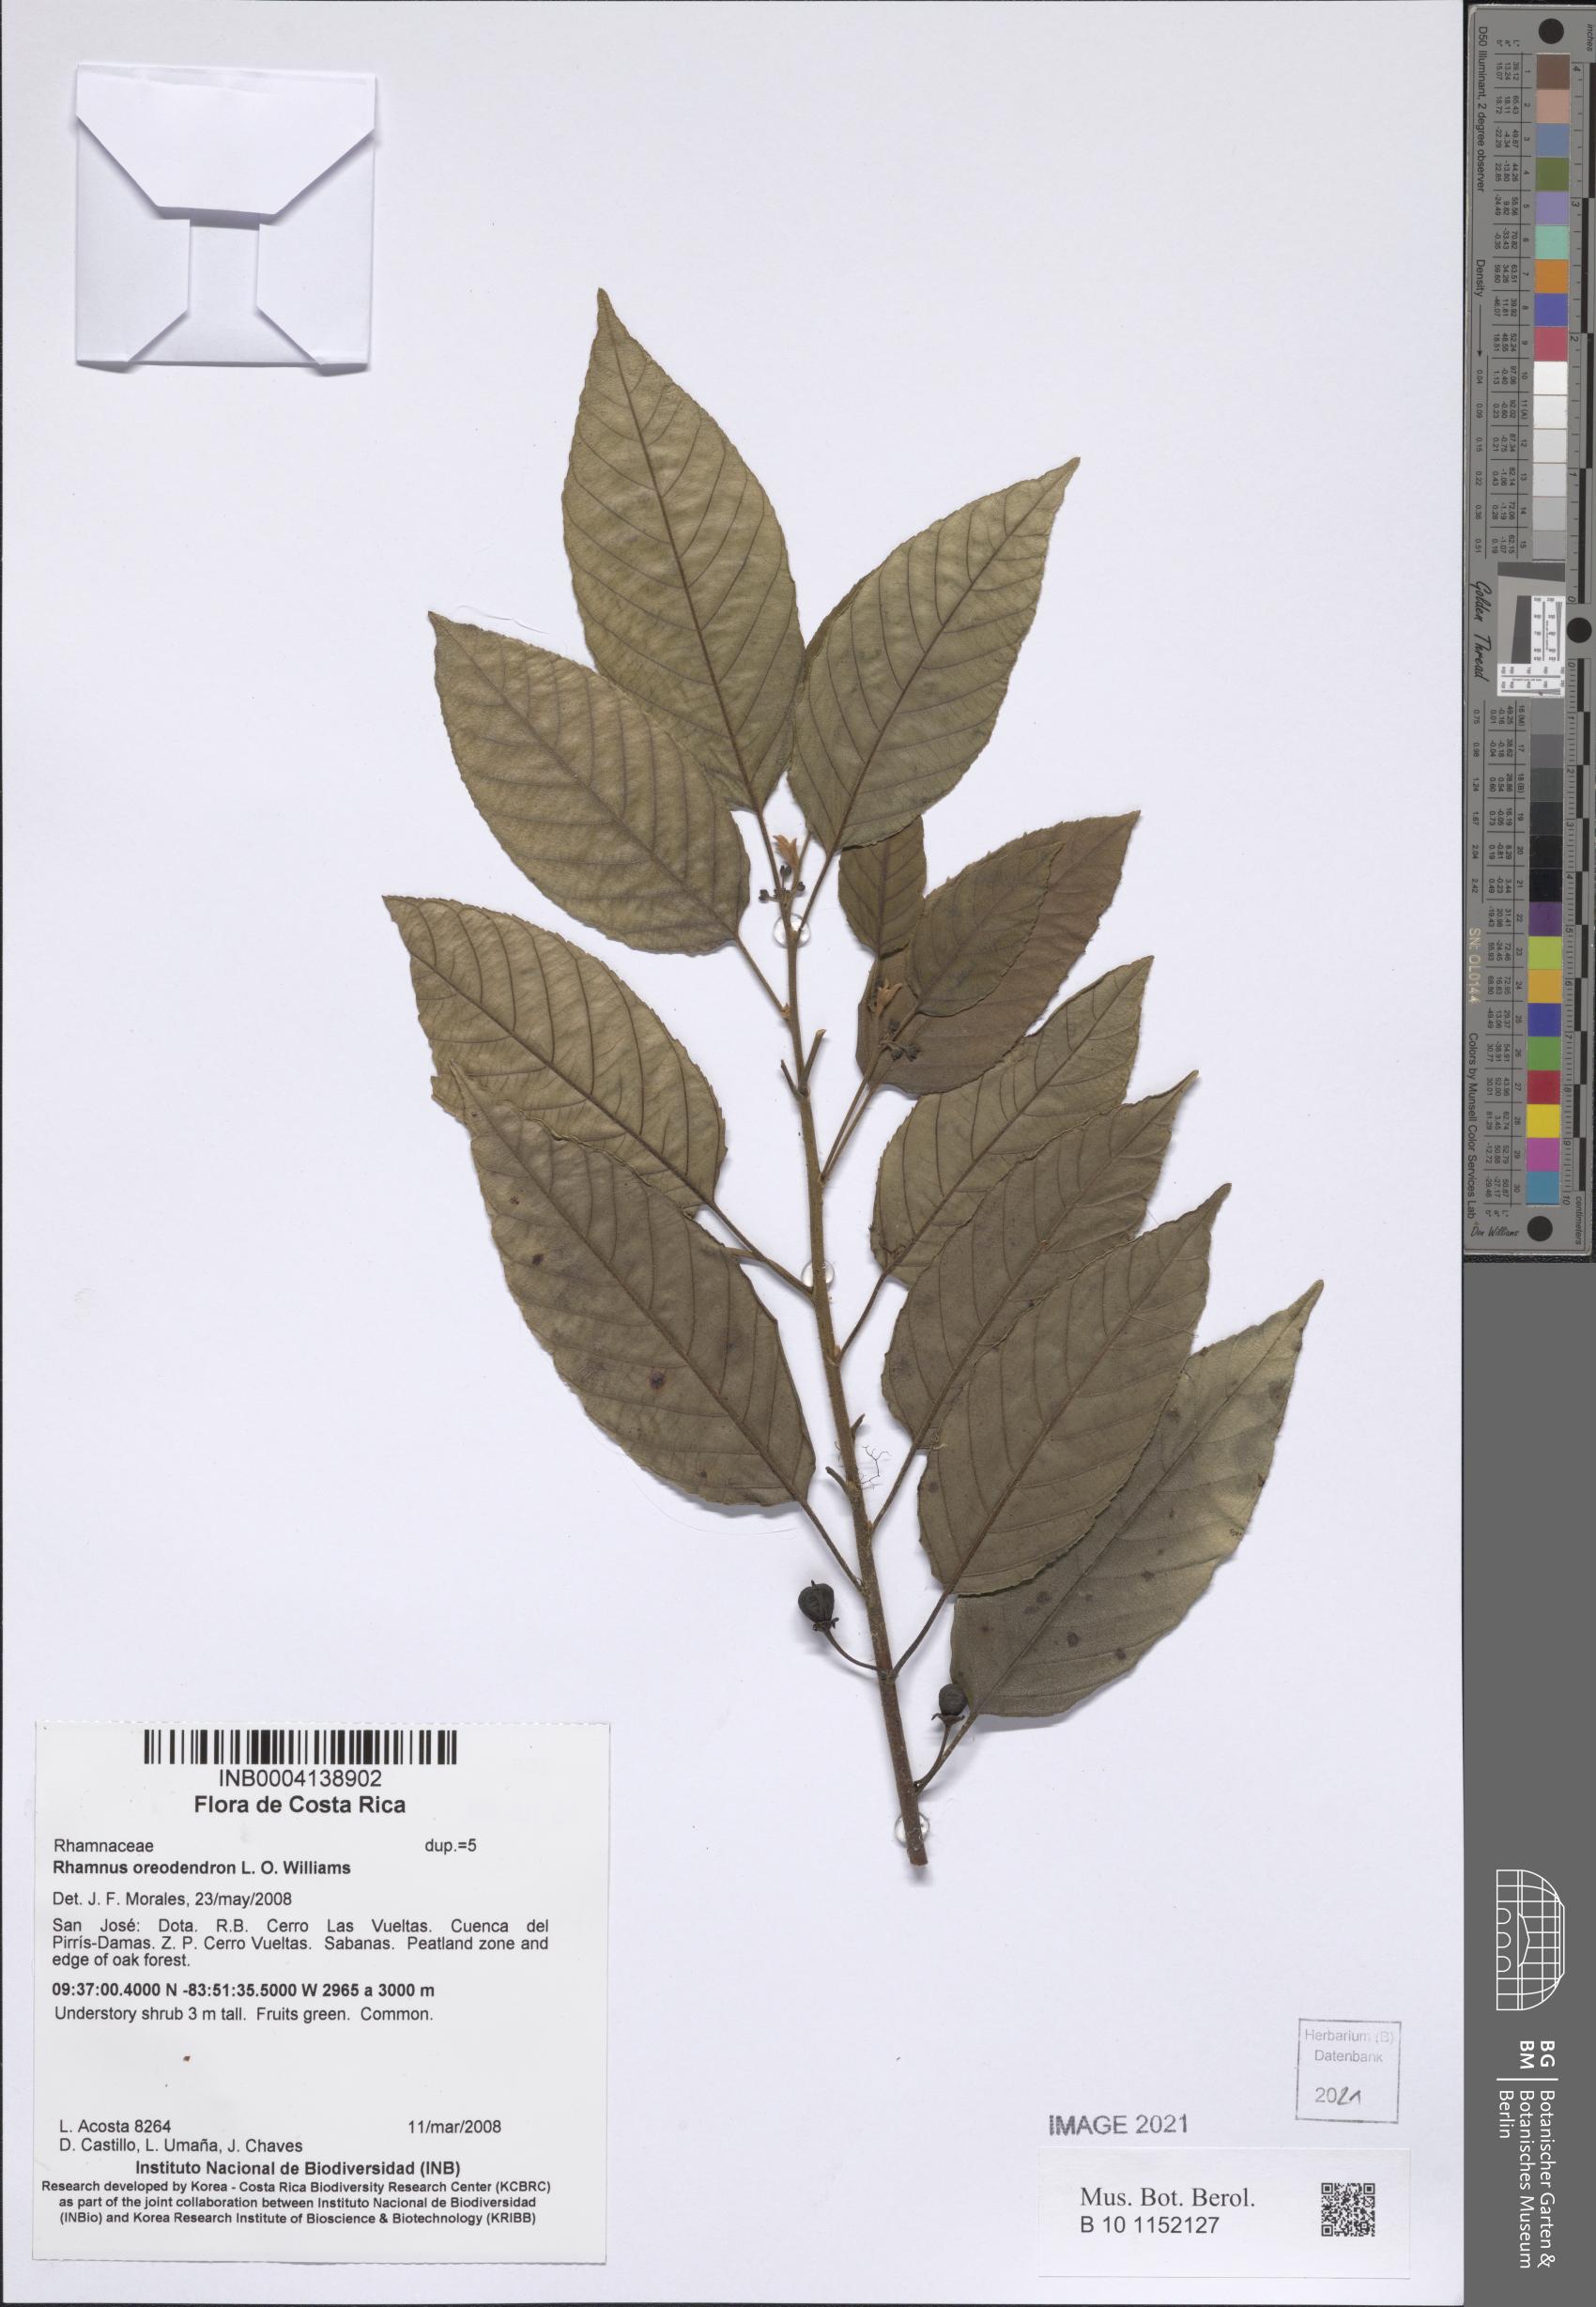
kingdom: Plantae
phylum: Tracheophyta
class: Magnoliopsida
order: Rosales
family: Rhamnaceae
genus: Frangula
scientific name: Frangula oreodendron
